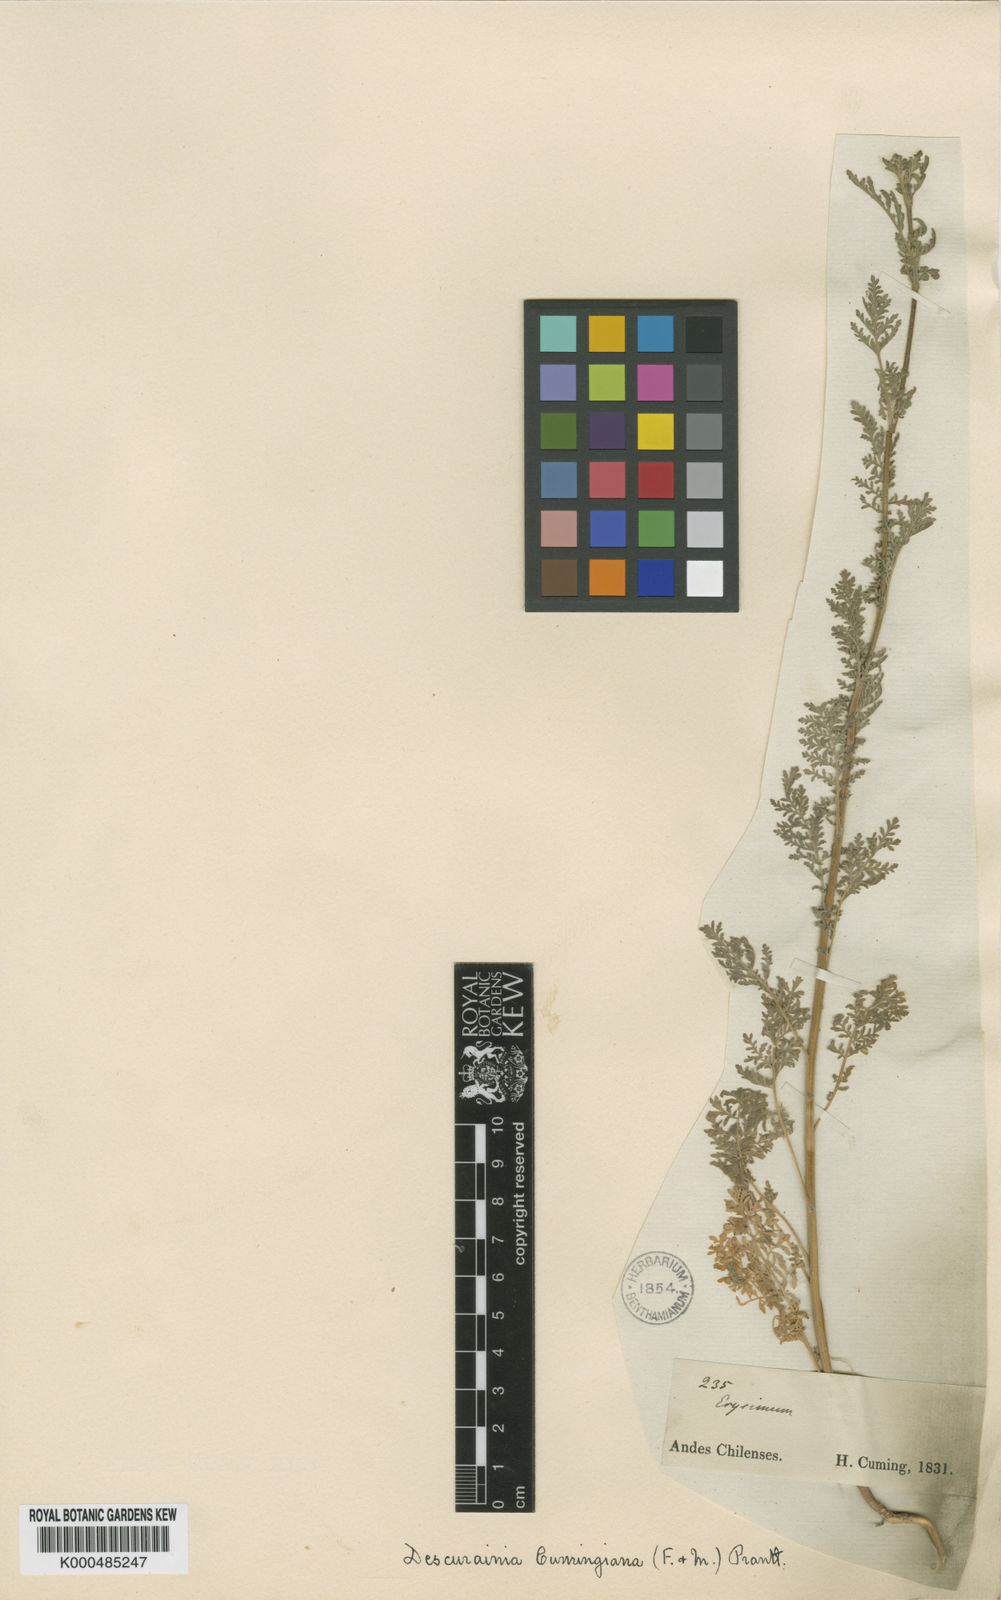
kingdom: Plantae
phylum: Tracheophyta
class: Magnoliopsida
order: Brassicales
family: Brassicaceae
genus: Descurainia
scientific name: Descurainia nuttallii
